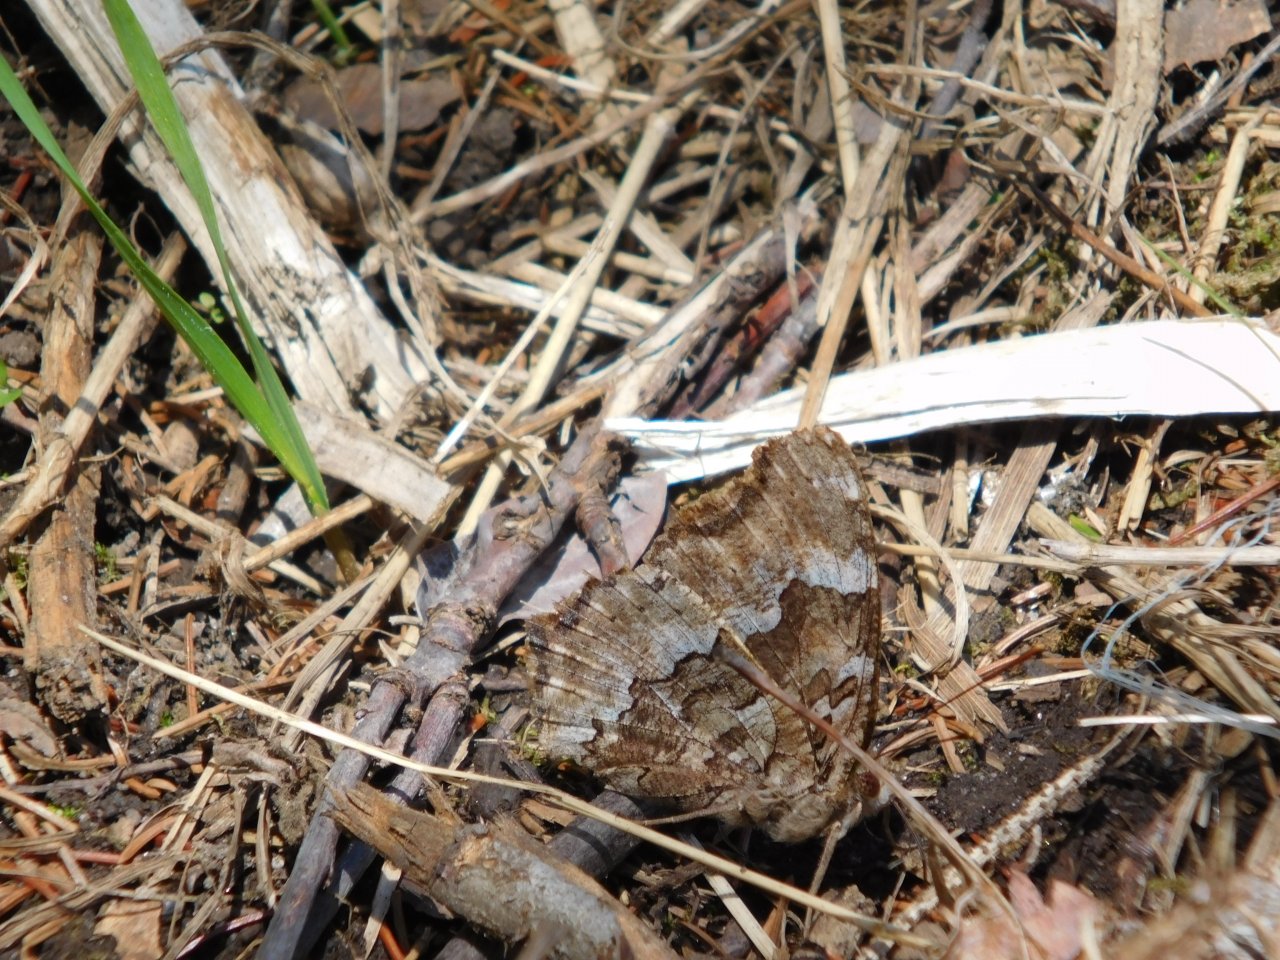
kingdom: Animalia
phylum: Arthropoda
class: Insecta
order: Lepidoptera
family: Nymphalidae
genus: Polygonia
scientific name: Polygonia vaualbum
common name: Compton Tortoiseshell
